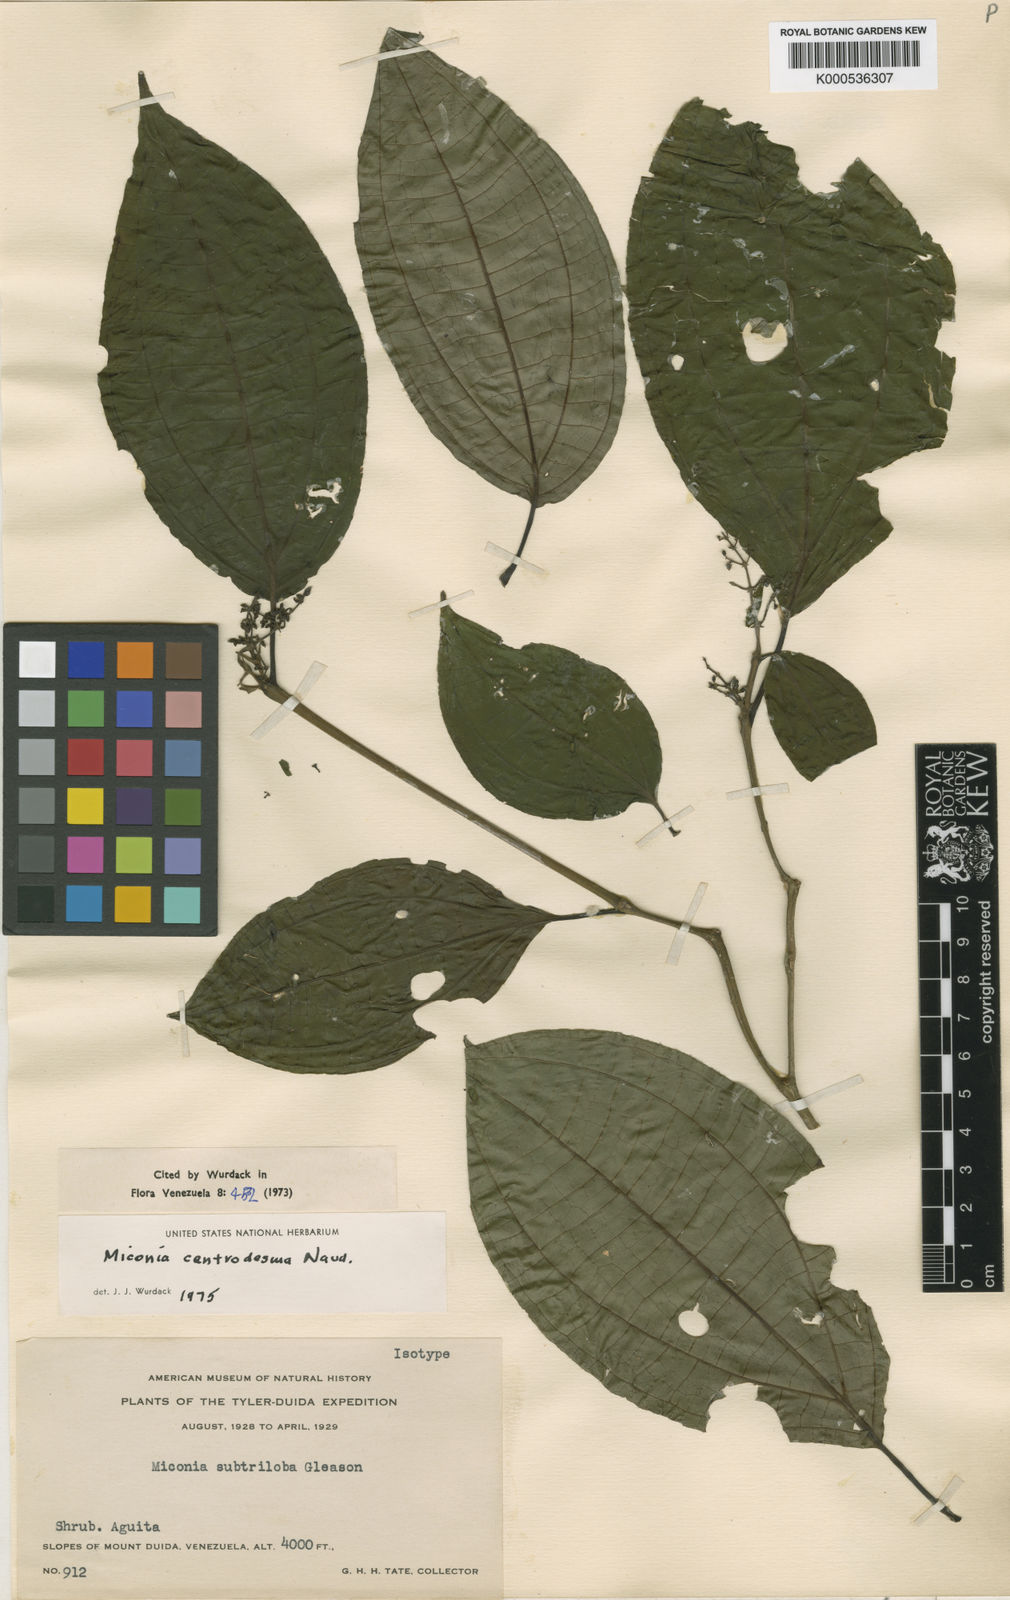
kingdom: Plantae
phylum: Tracheophyta
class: Magnoliopsida
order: Myrtales
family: Melastomataceae
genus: Miconia
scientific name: Miconia centrodesma
